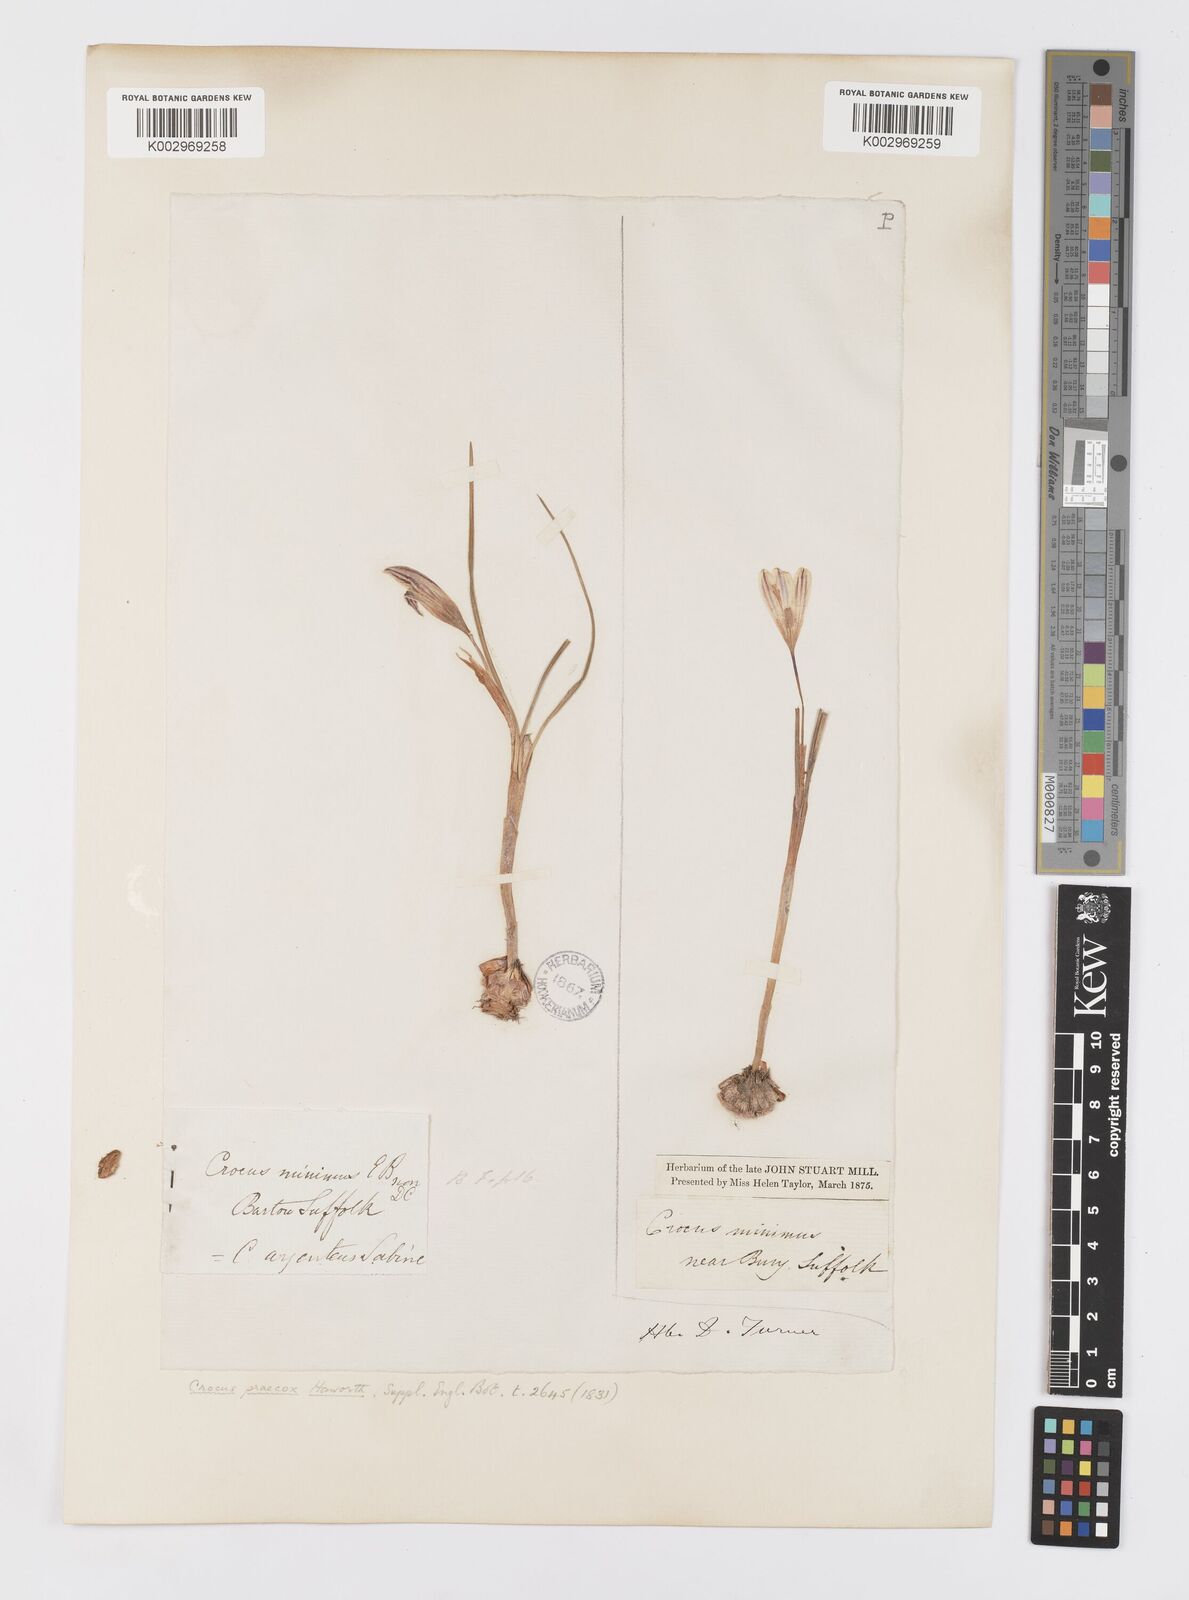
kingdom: Plantae
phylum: Tracheophyta
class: Liliopsida
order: Asparagales
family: Iridaceae
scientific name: Iridaceae
